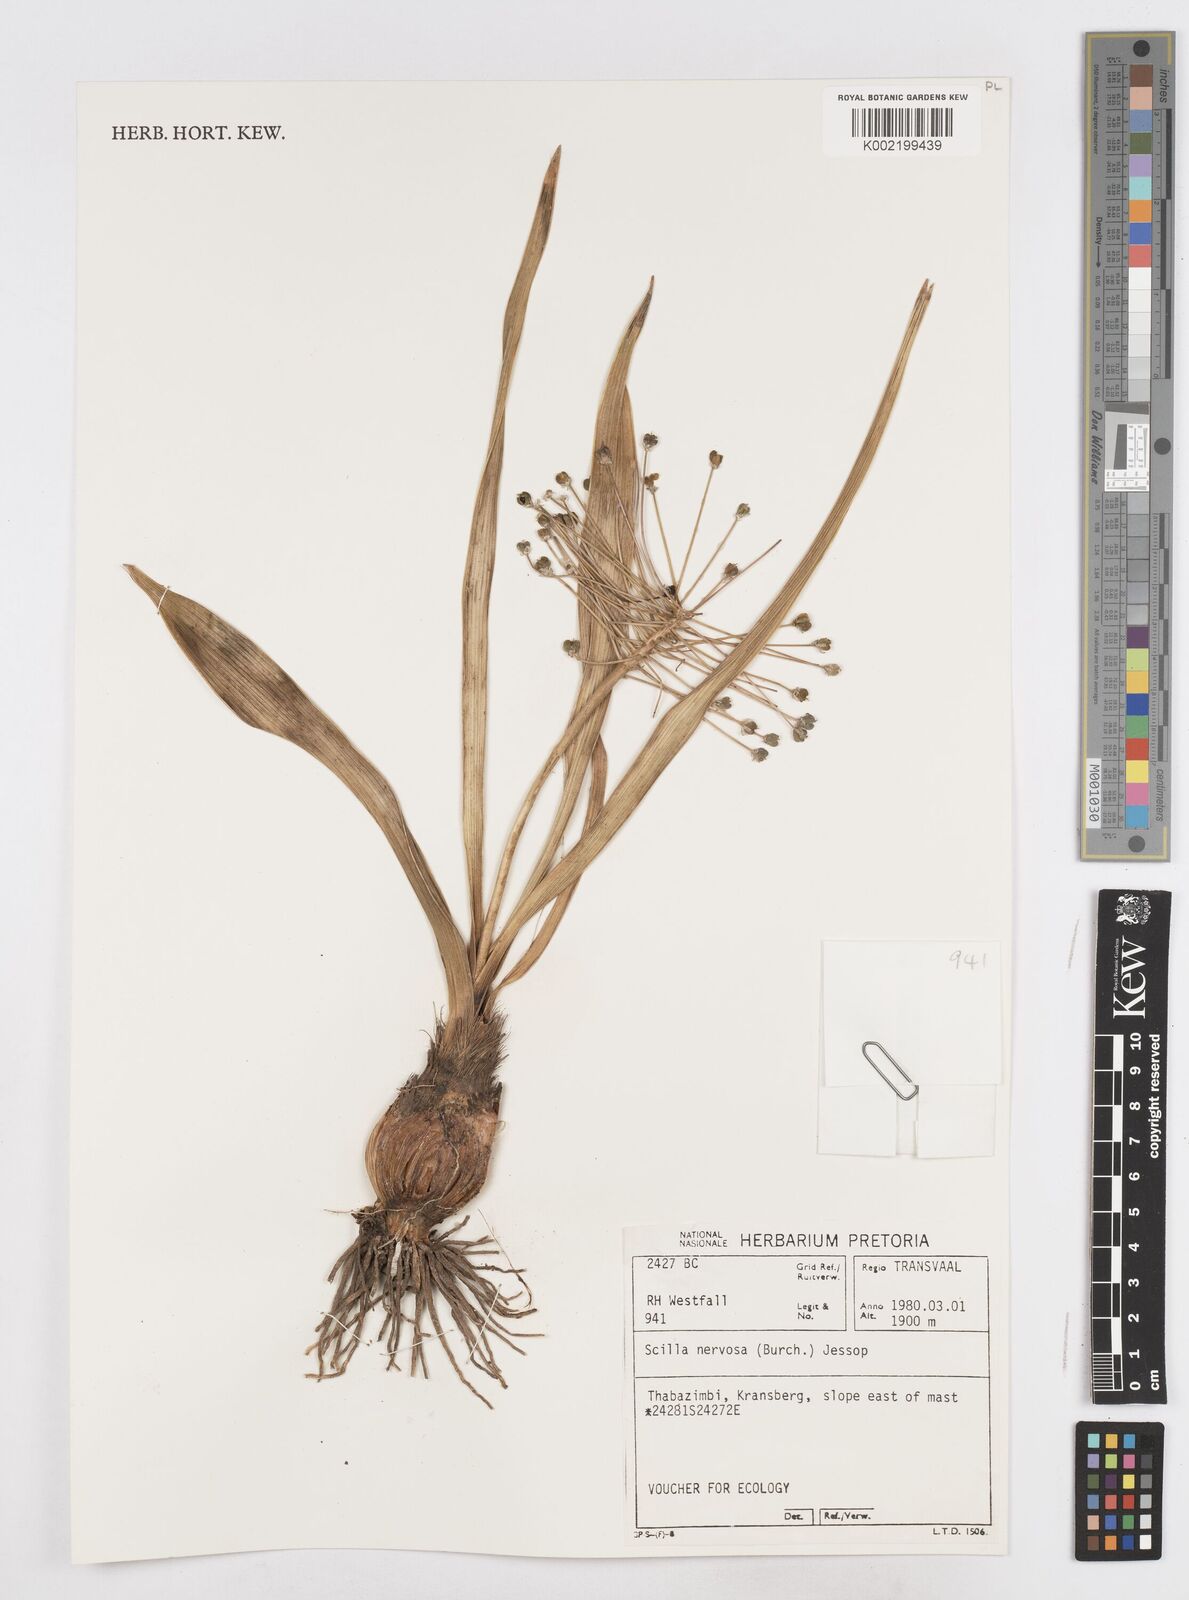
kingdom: Plantae
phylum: Tracheophyta
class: Liliopsida
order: Asparagales
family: Asparagaceae
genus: Schizocarphus
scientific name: Schizocarphus nervosus
